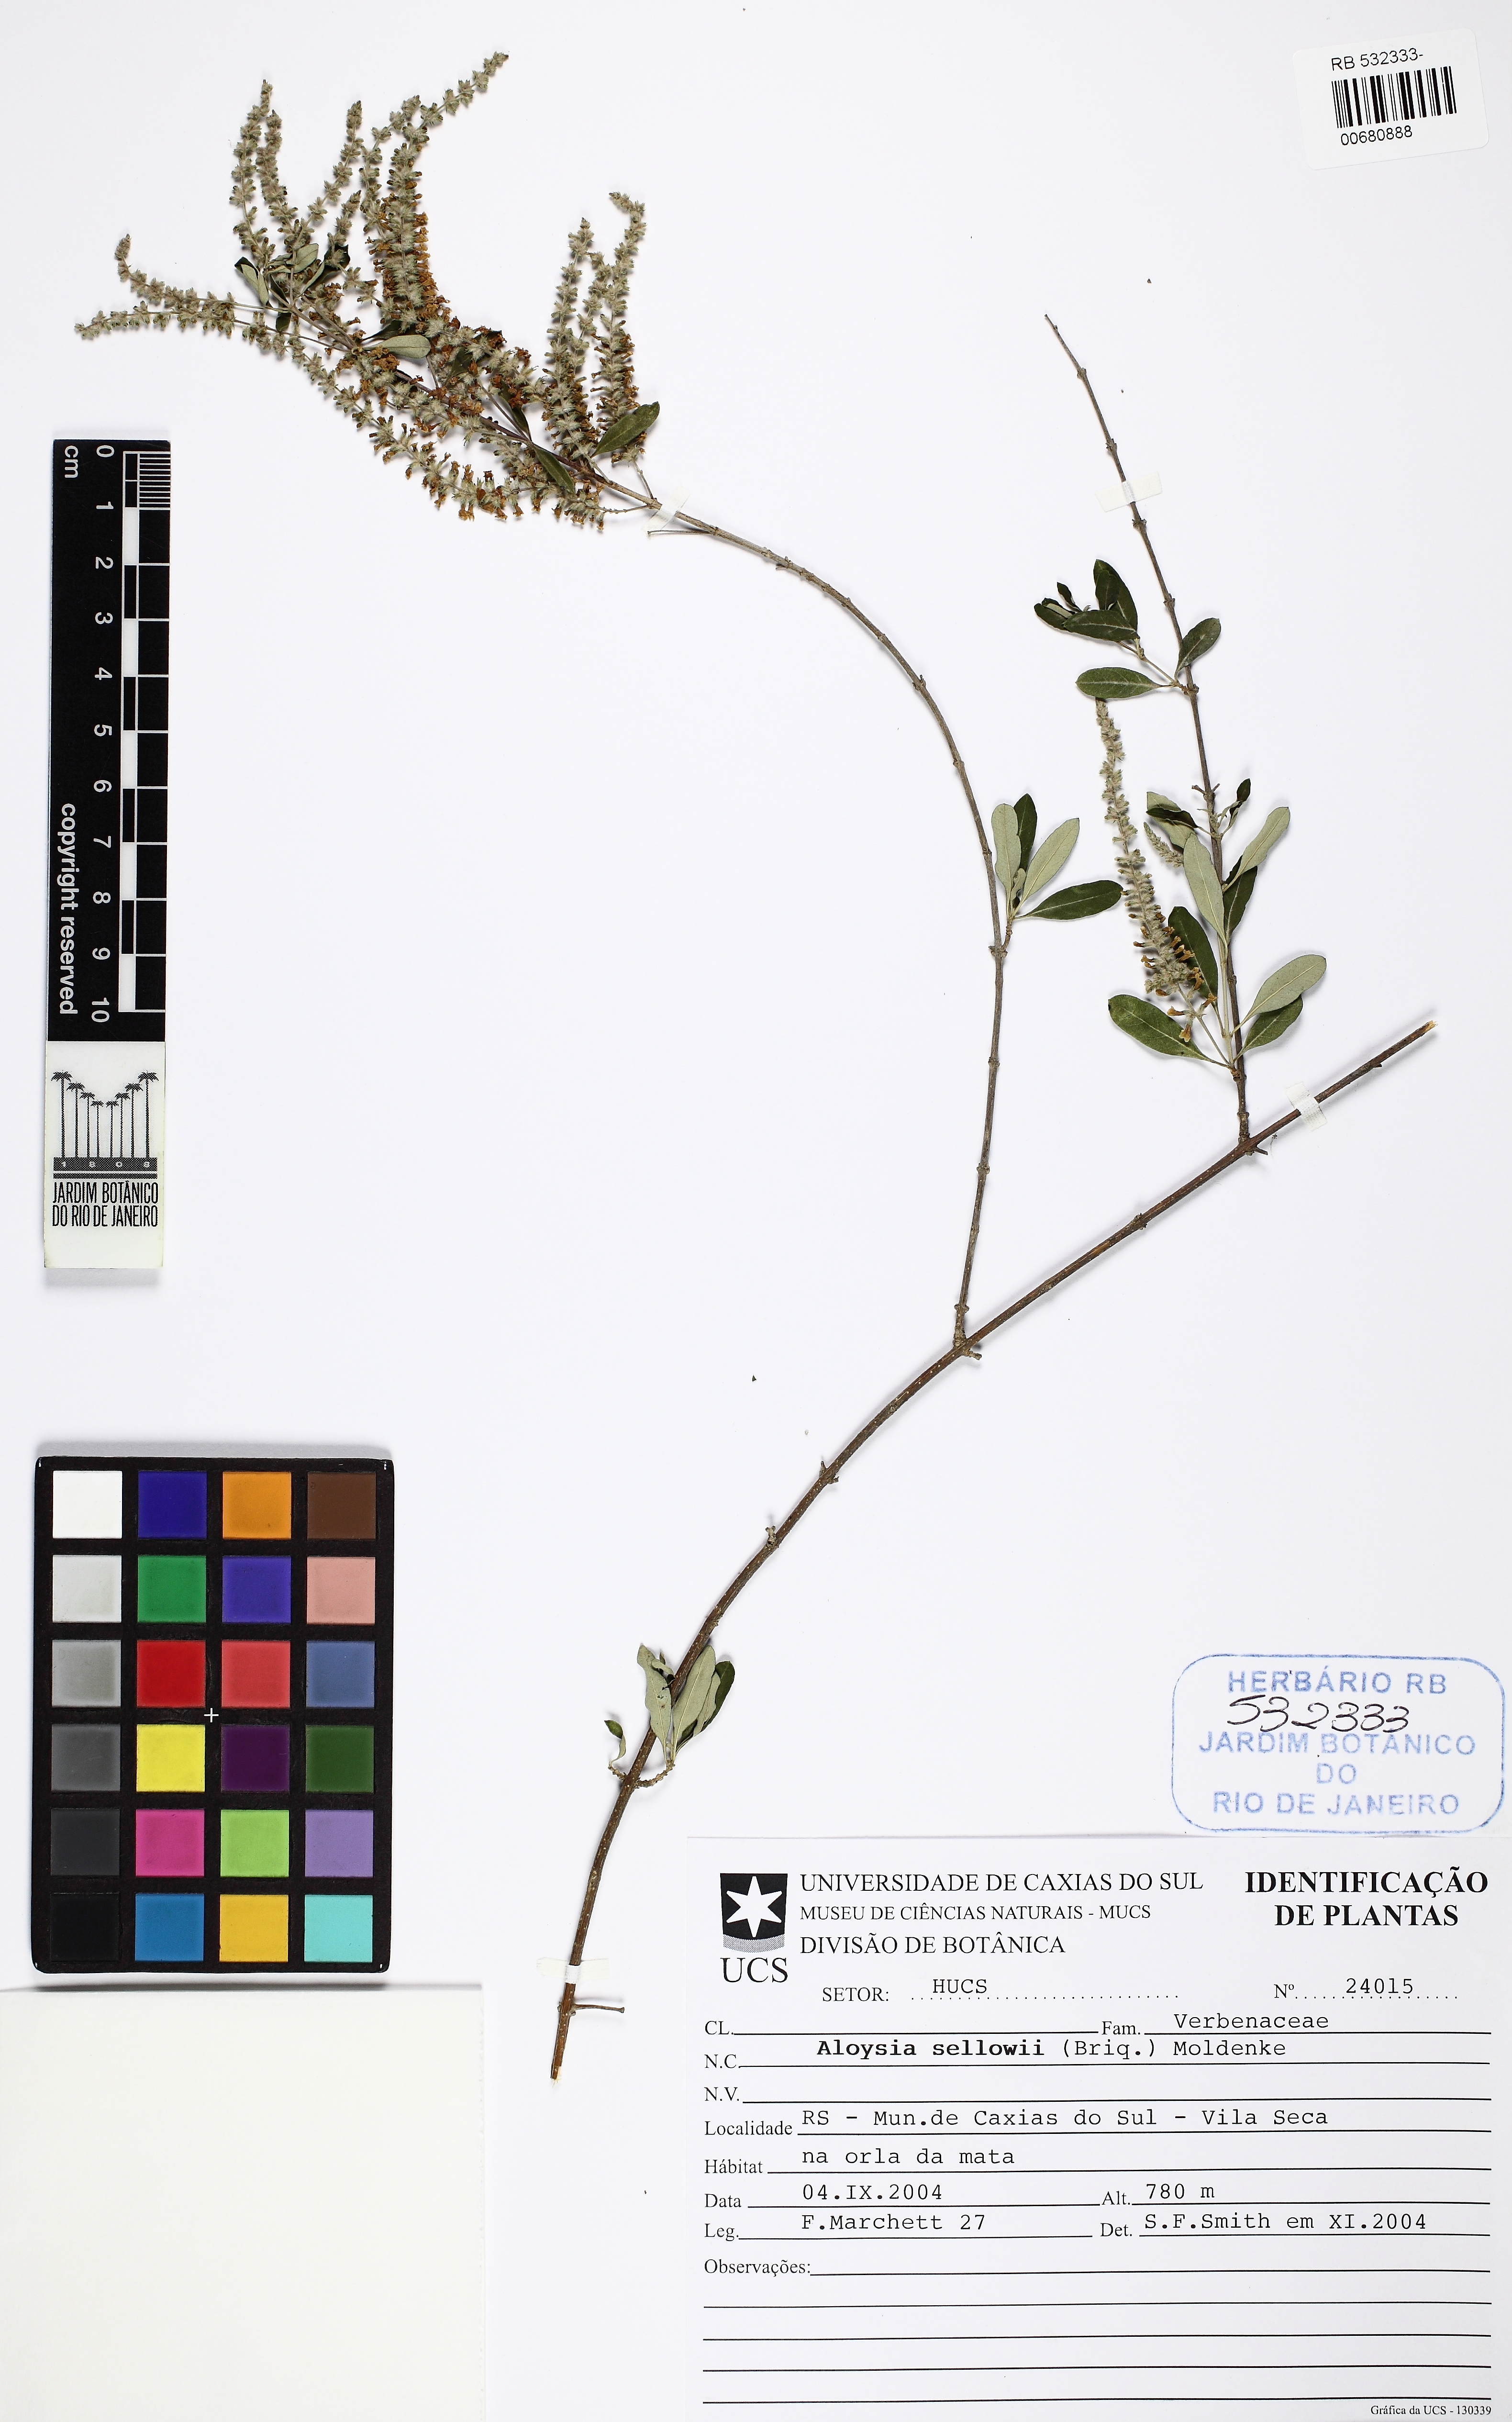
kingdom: Plantae
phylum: Tracheophyta
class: Magnoliopsida
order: Lamiales
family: Verbenaceae
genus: Aloysia
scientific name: Aloysia pulchra
